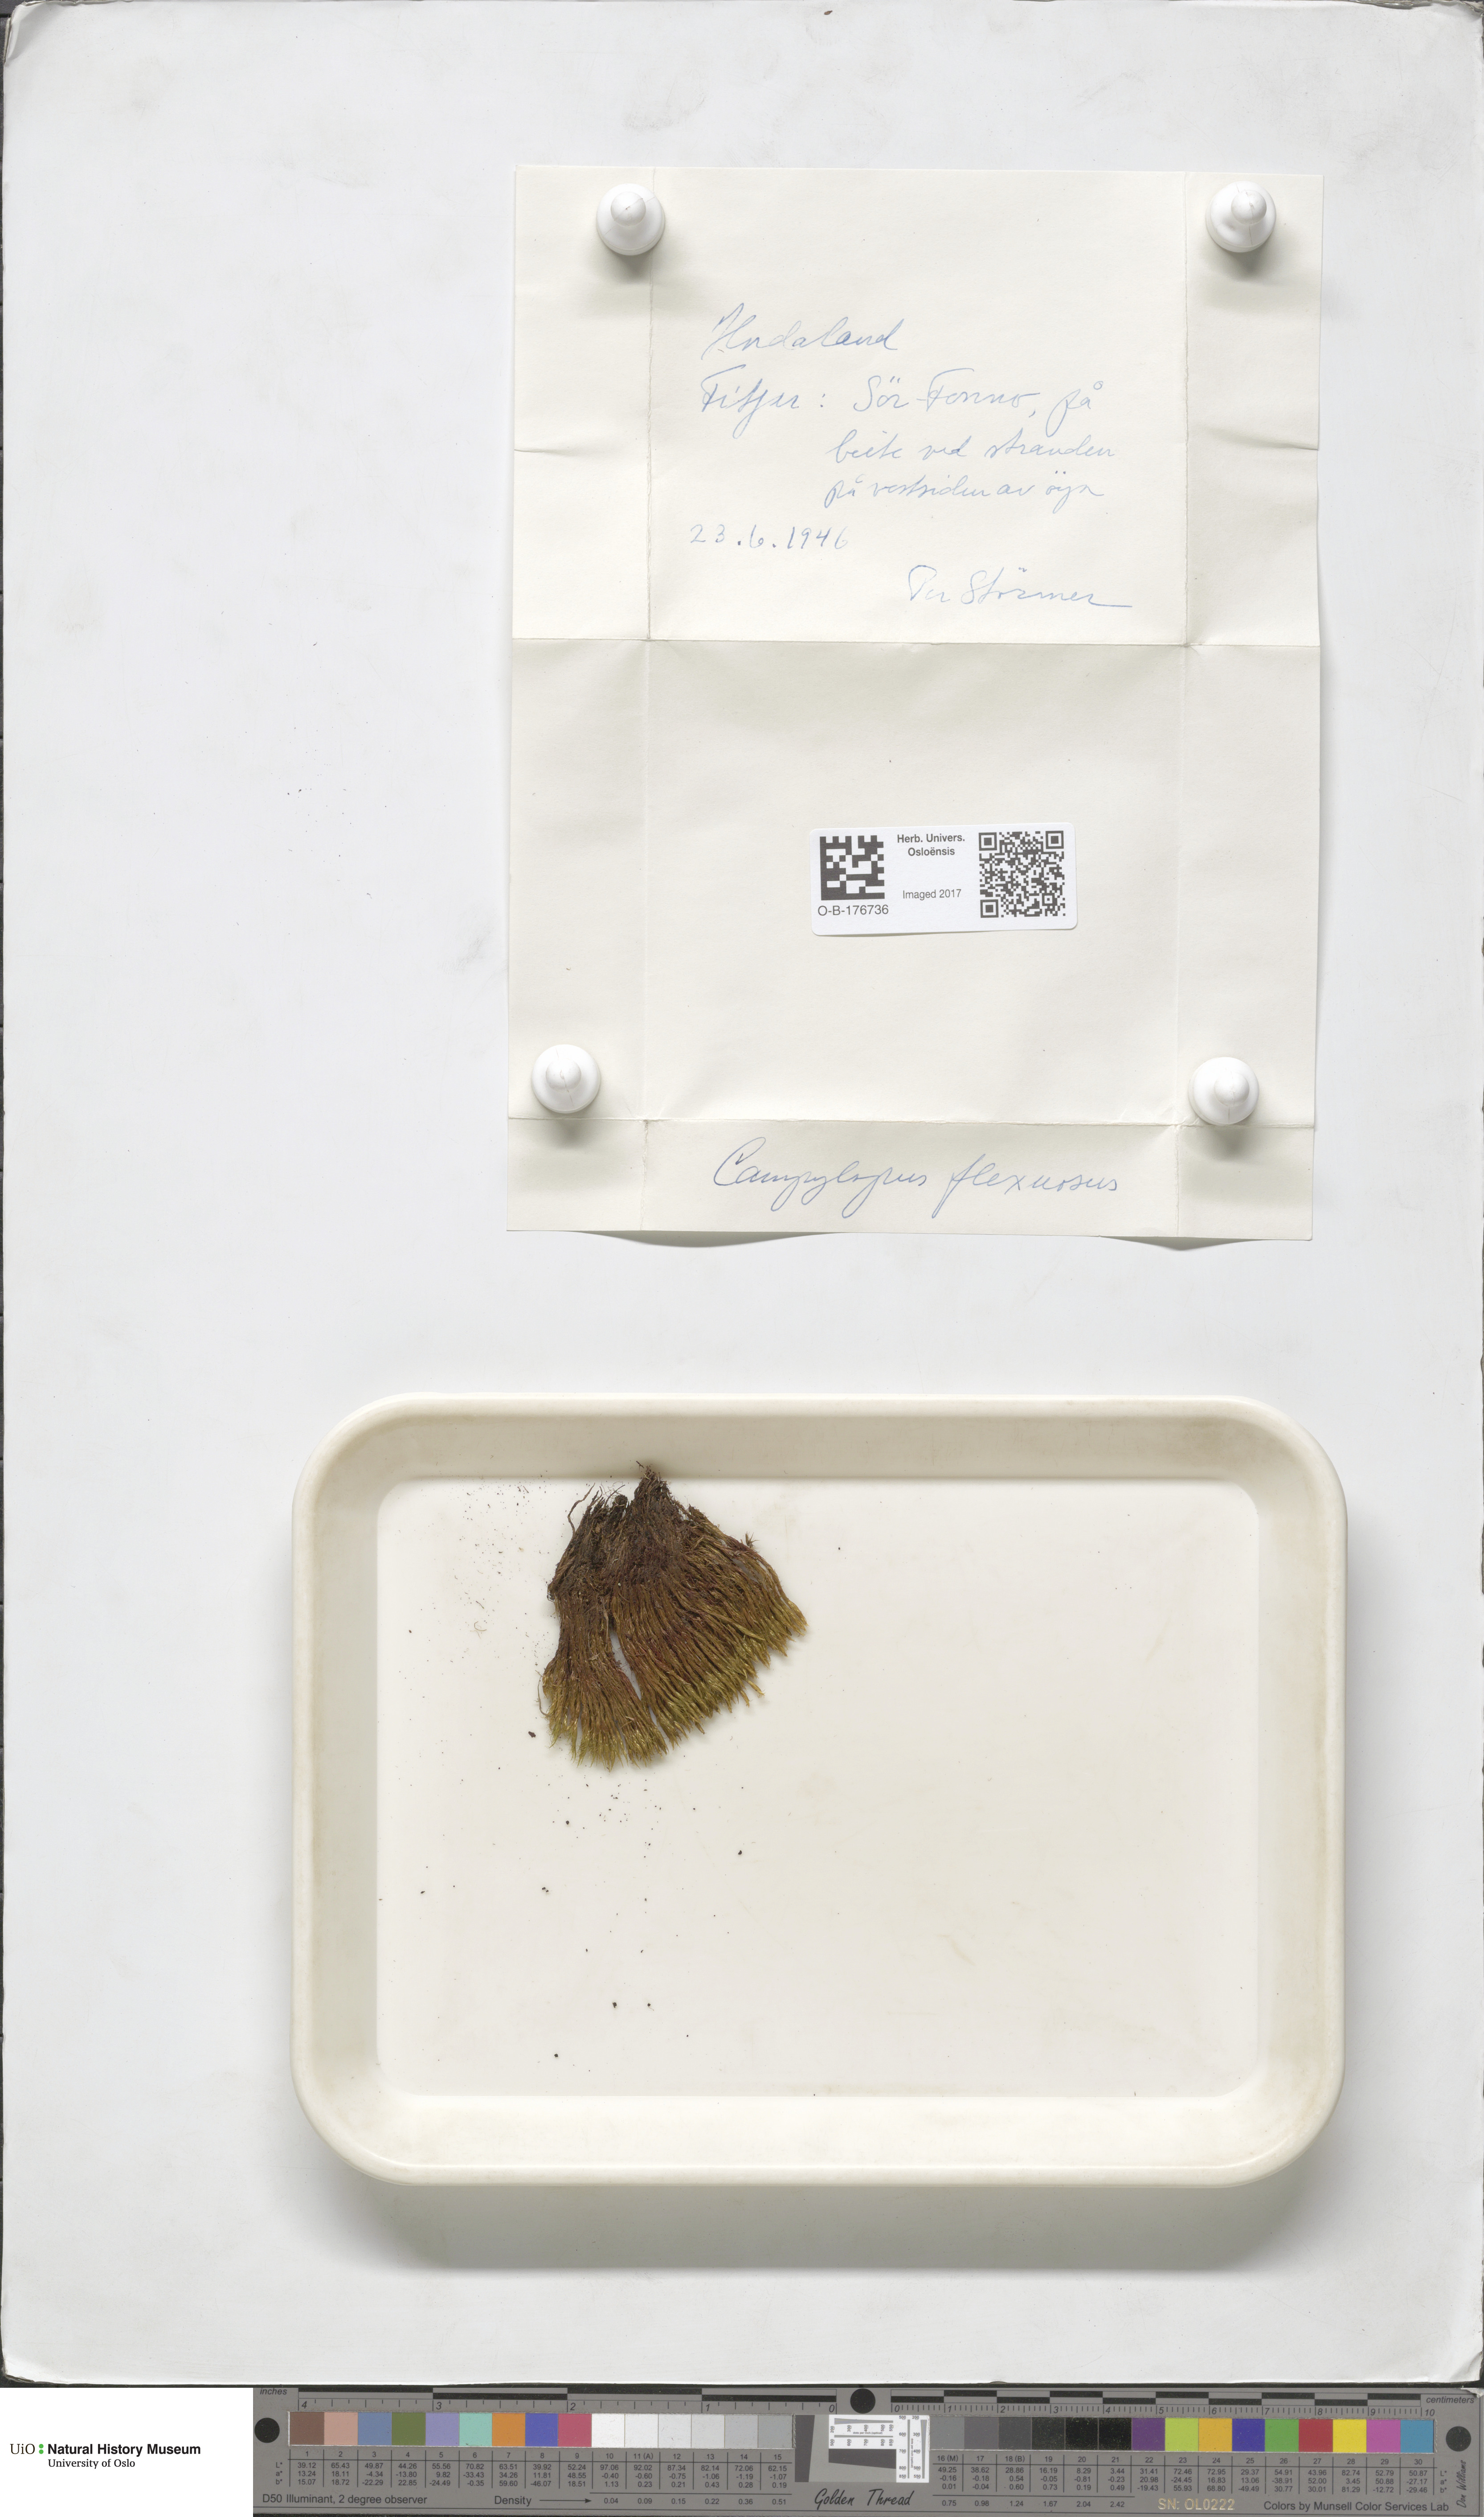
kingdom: Plantae
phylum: Bryophyta
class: Bryopsida
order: Dicranales
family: Leucobryaceae
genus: Campylopus
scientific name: Campylopus flexuosus
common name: Rusty swan-neck moss
